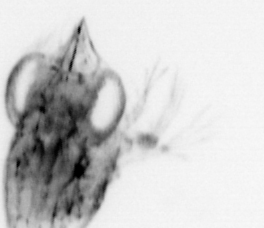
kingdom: Animalia
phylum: Arthropoda
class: Malacostraca
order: Decapoda
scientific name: Decapoda
